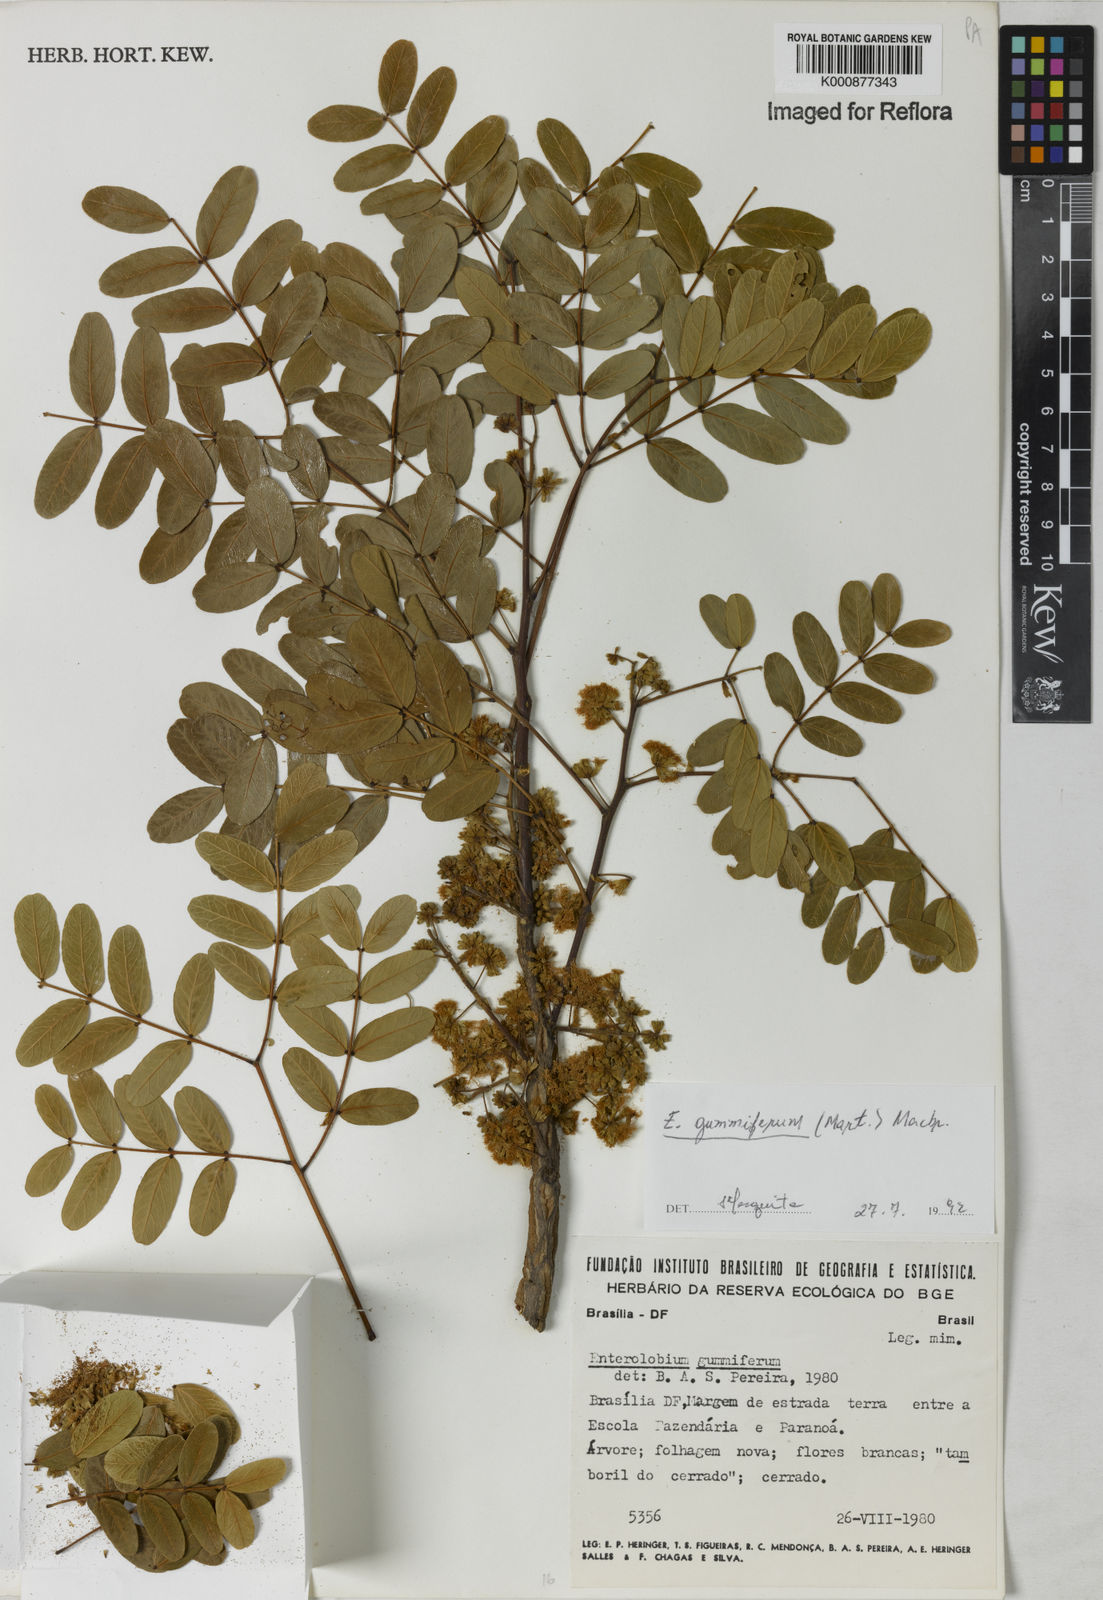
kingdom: Plantae
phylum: Tracheophyta
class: Magnoliopsida
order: Fabales
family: Fabaceae
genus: Enterolobium
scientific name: Enterolobium gummiferum
